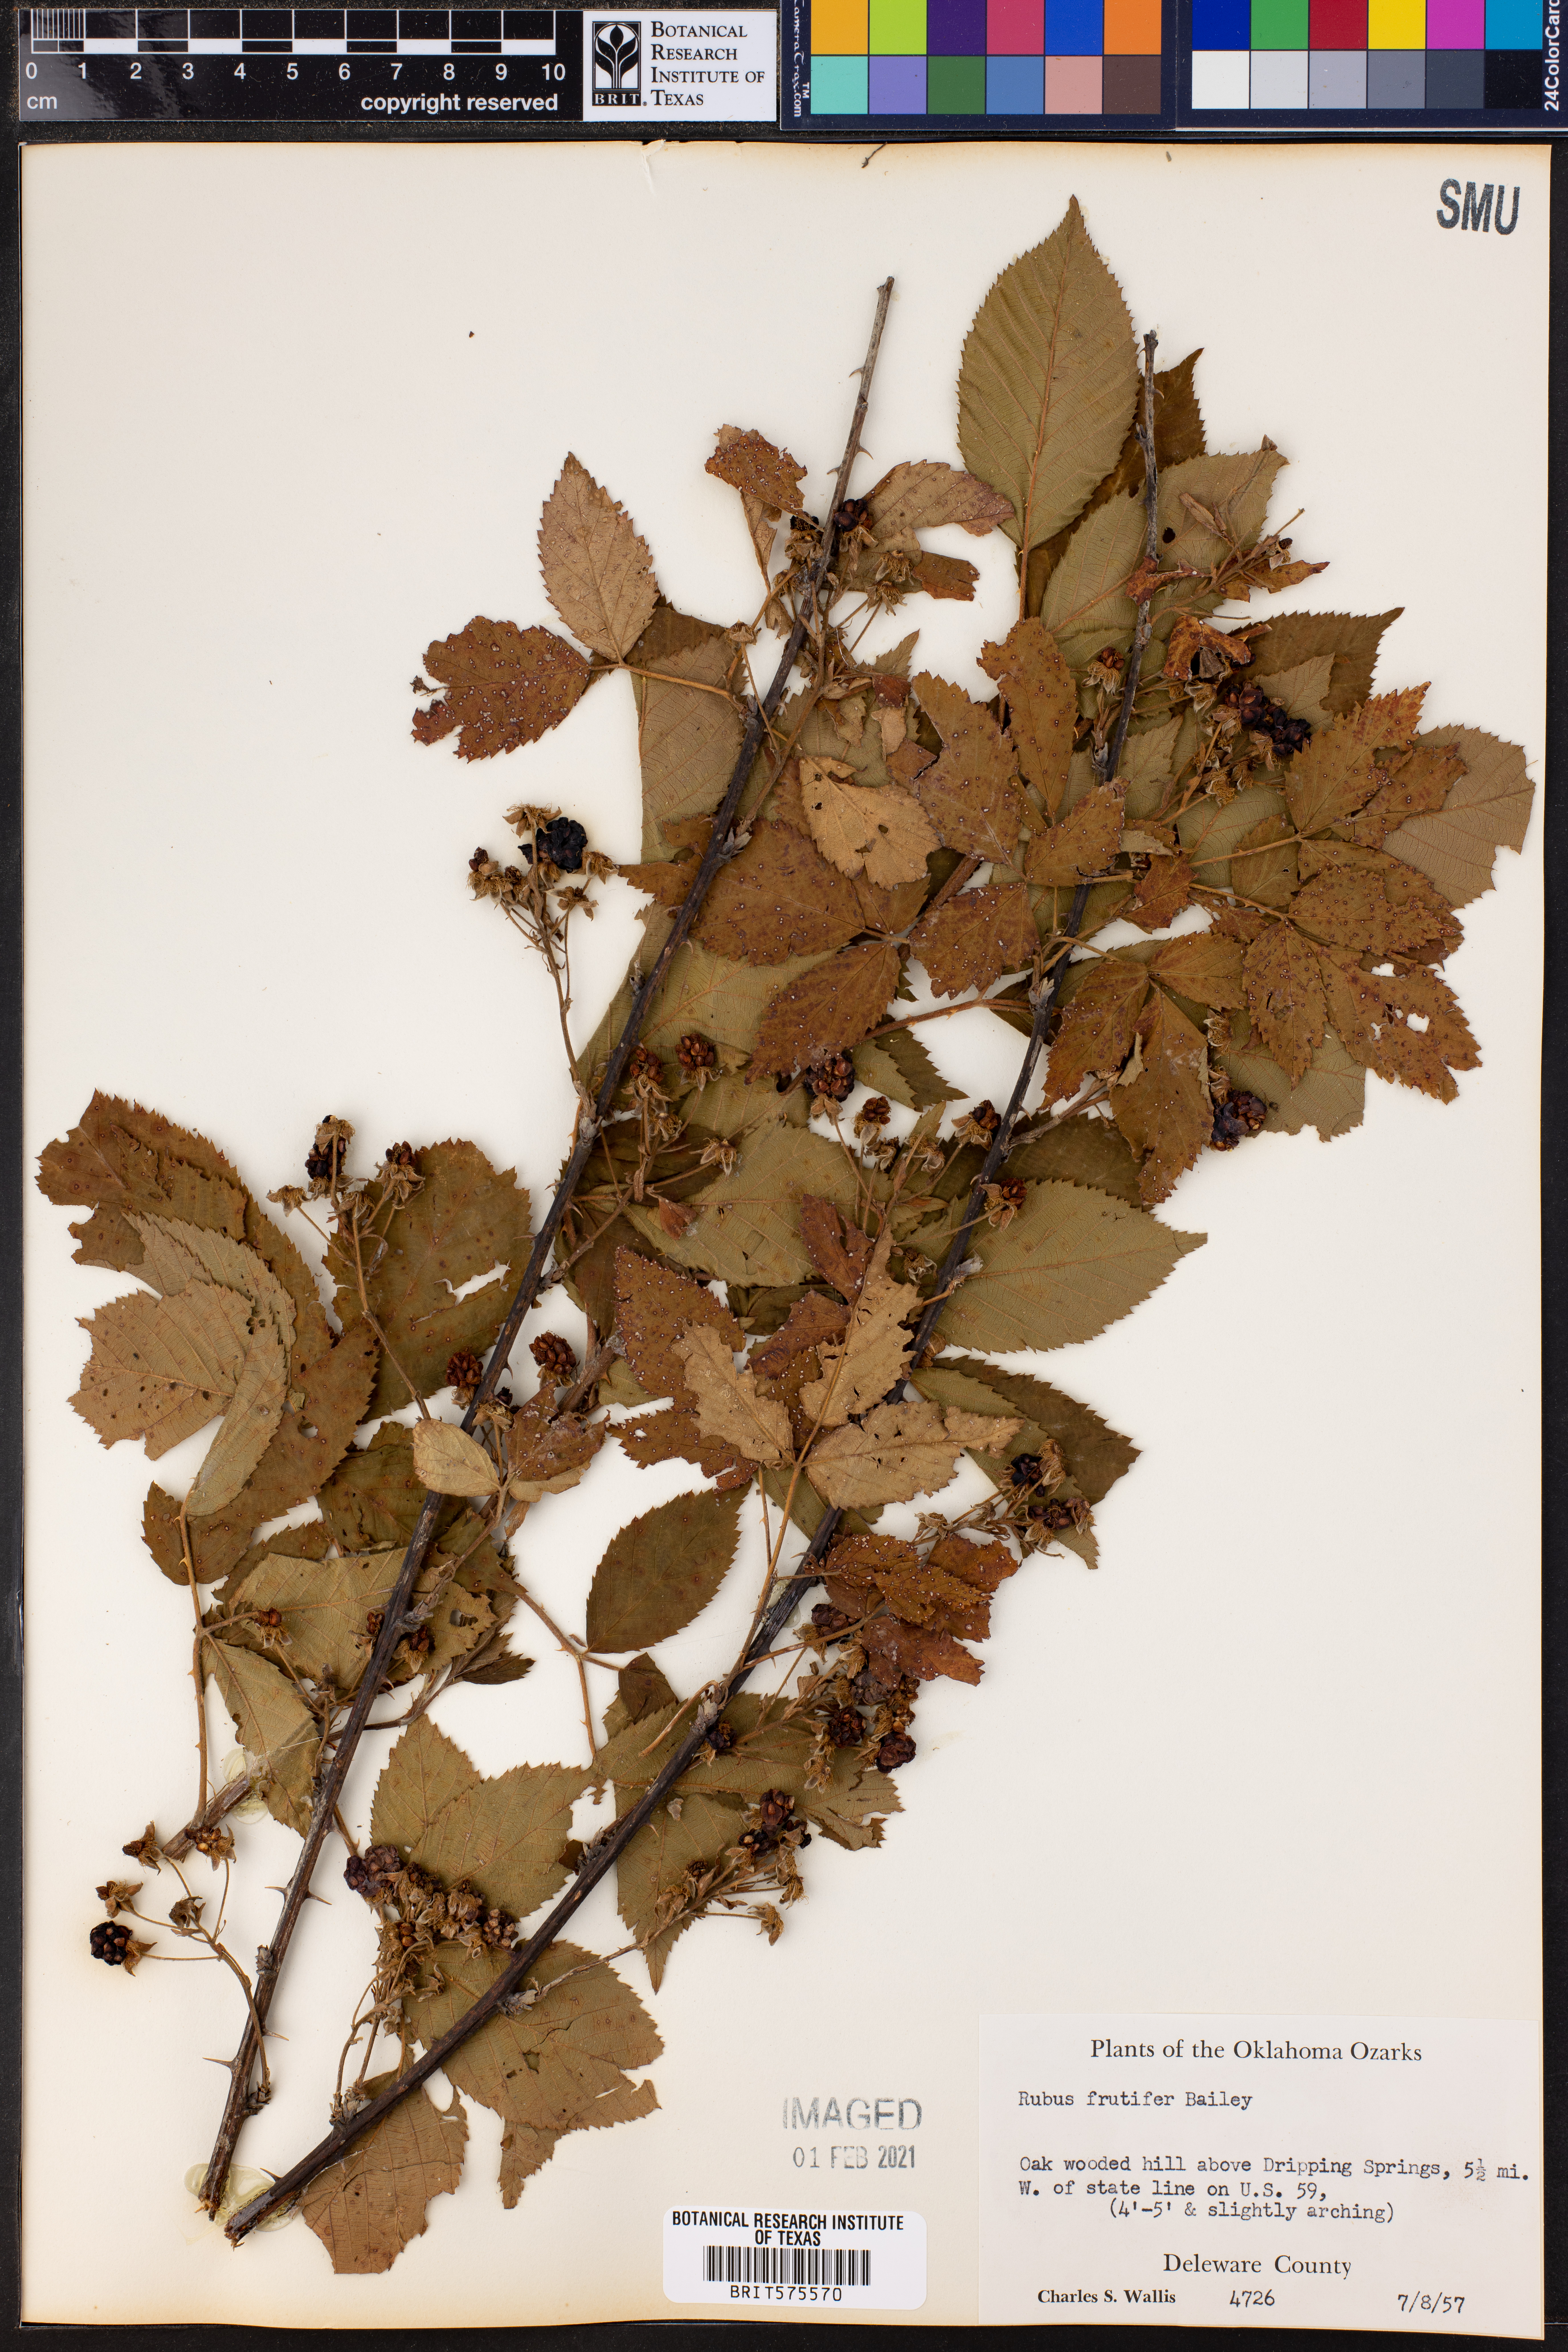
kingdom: Plantae
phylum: Tracheophyta
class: Magnoliopsida
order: Rosales
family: Rosaceae
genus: Rubus
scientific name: Rubus frutifer
